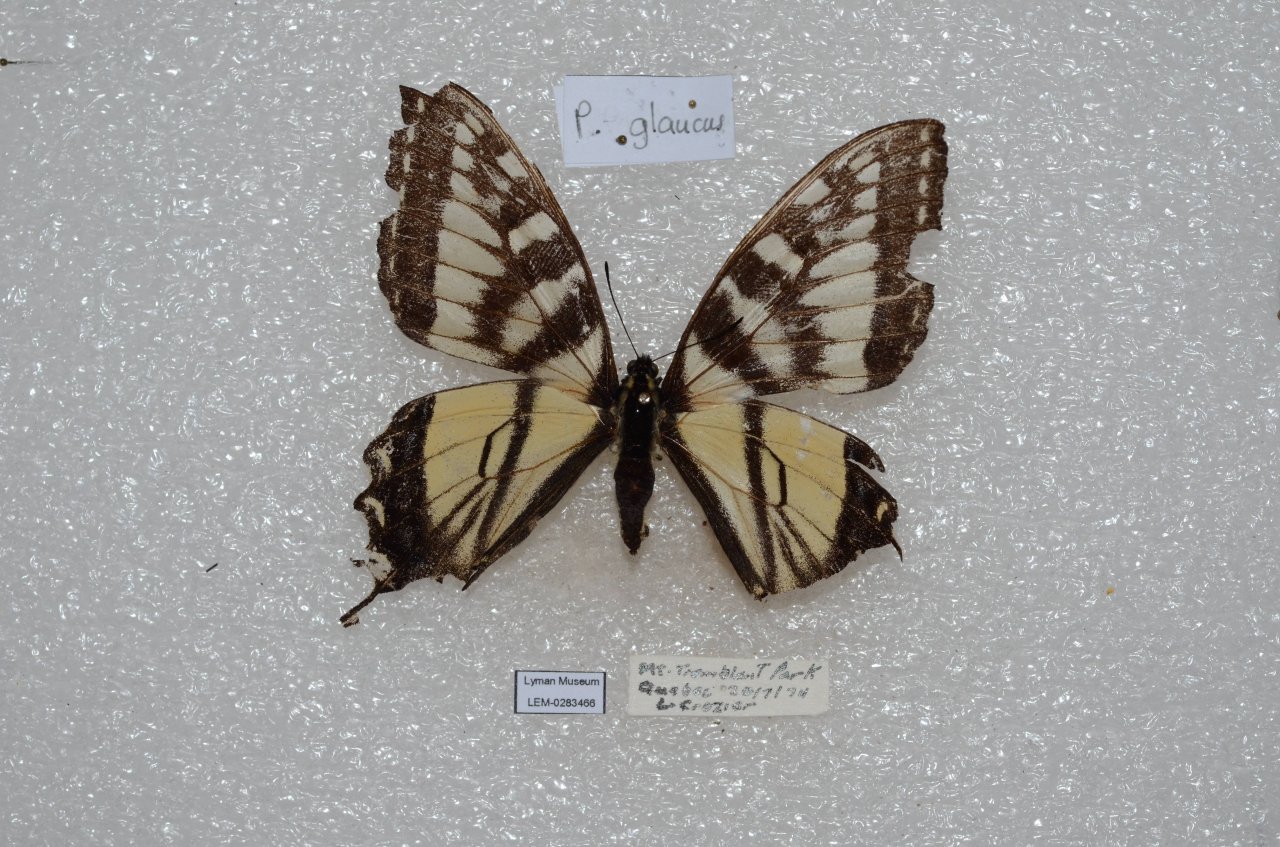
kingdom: Animalia
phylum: Arthropoda
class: Insecta
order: Lepidoptera
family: Papilionidae
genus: Pterourus
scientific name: Pterourus canadensis
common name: Canadian Tiger Swallowtail
